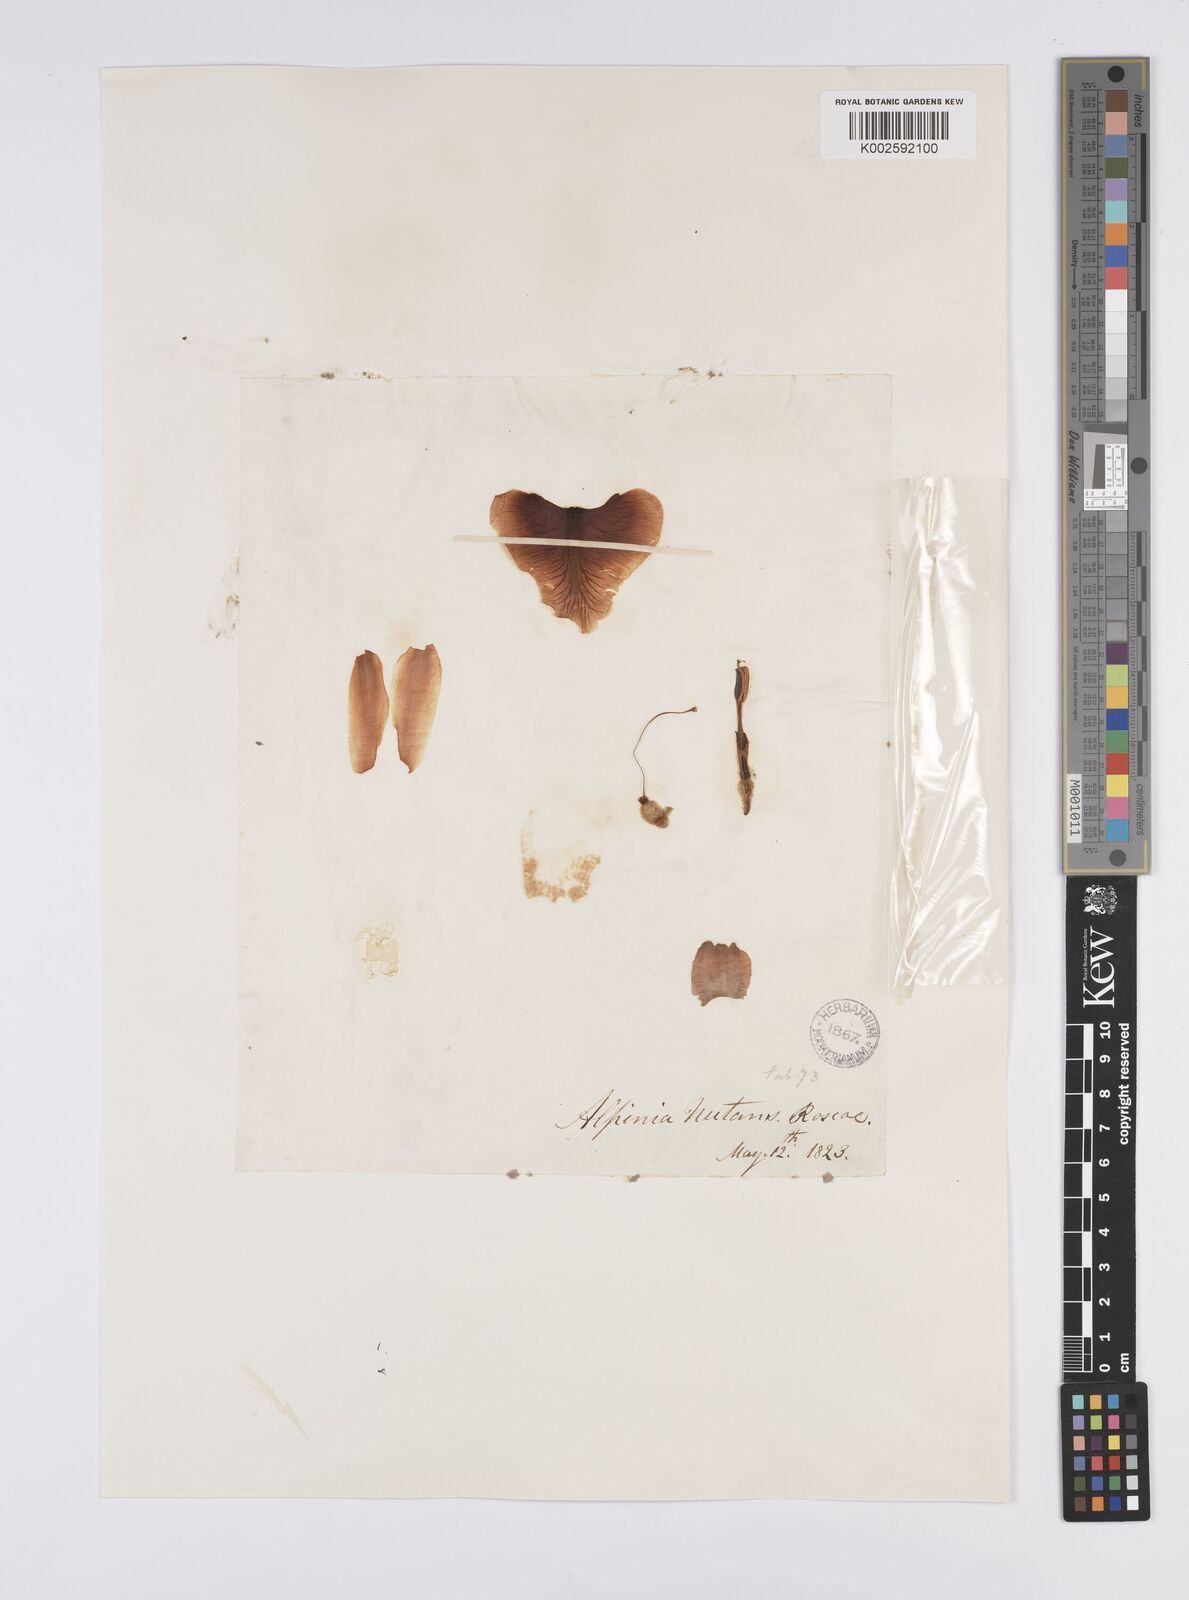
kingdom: Plantae
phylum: Tracheophyta
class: Liliopsida
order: Zingiberales
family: Zingiberaceae
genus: Alpinia
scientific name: Alpinia
